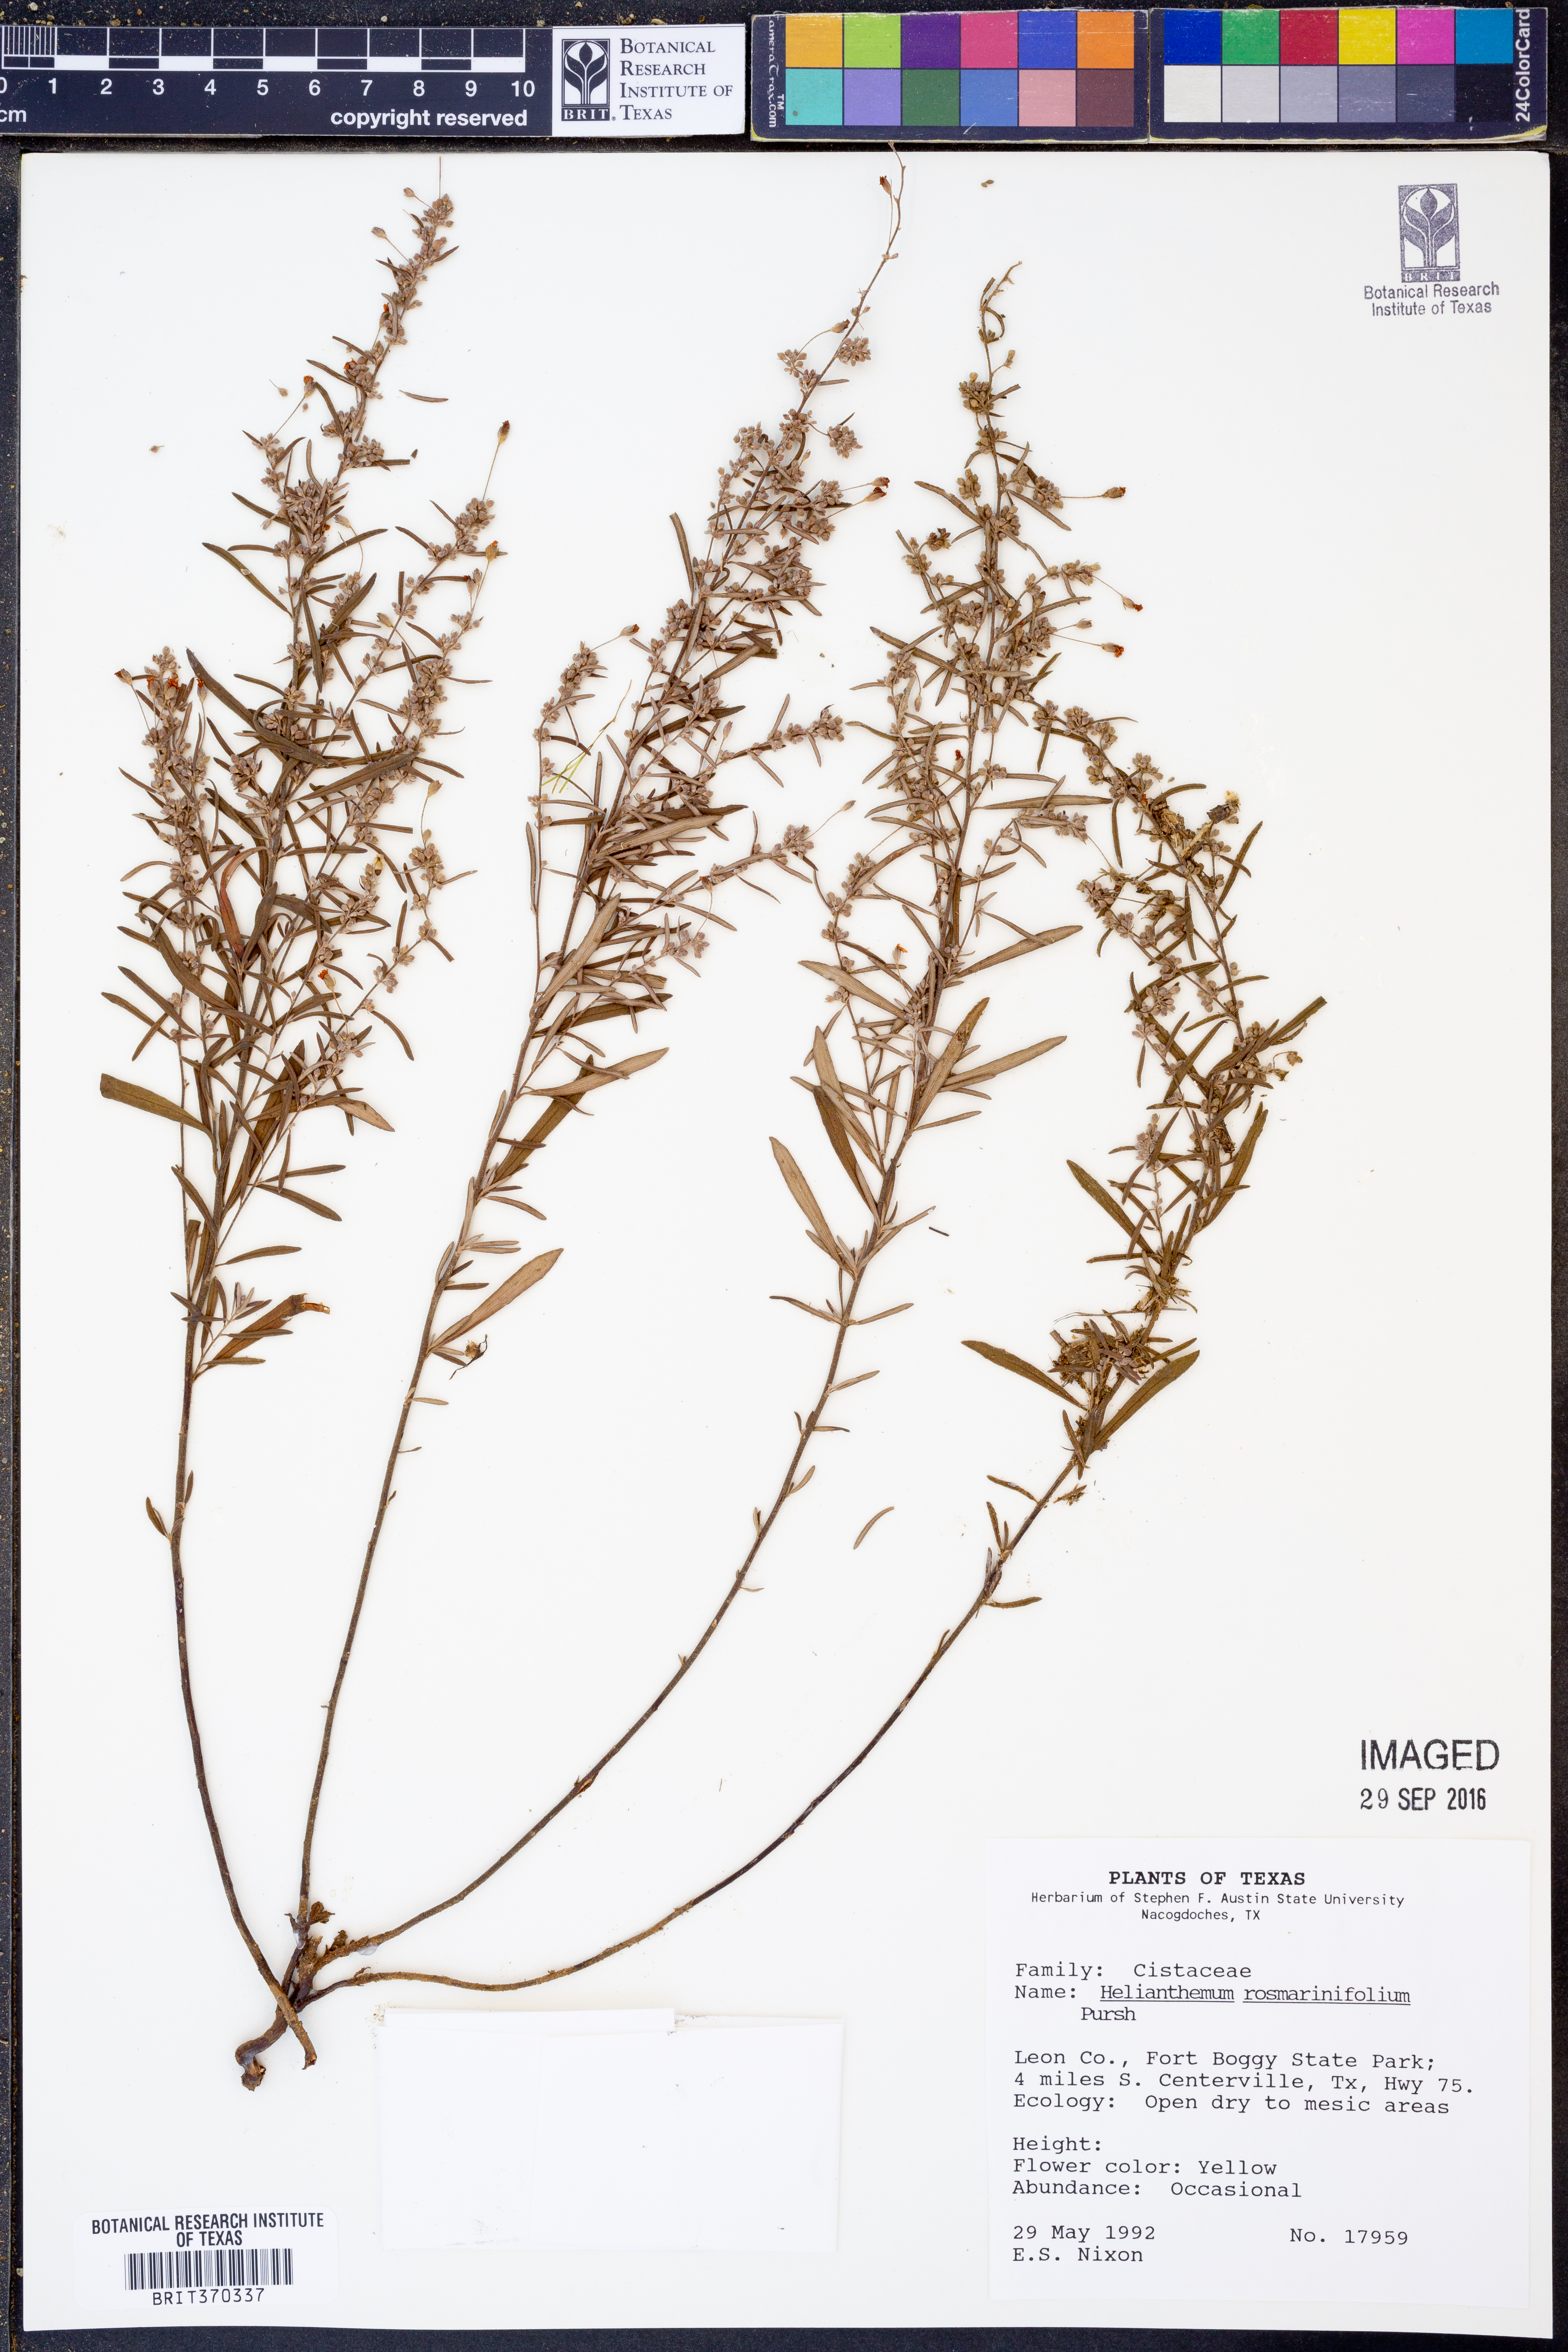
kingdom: Plantae
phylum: Tracheophyta
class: Magnoliopsida
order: Malvales
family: Cistaceae
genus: Crocanthemum
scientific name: Crocanthemum rosmarinifolium
